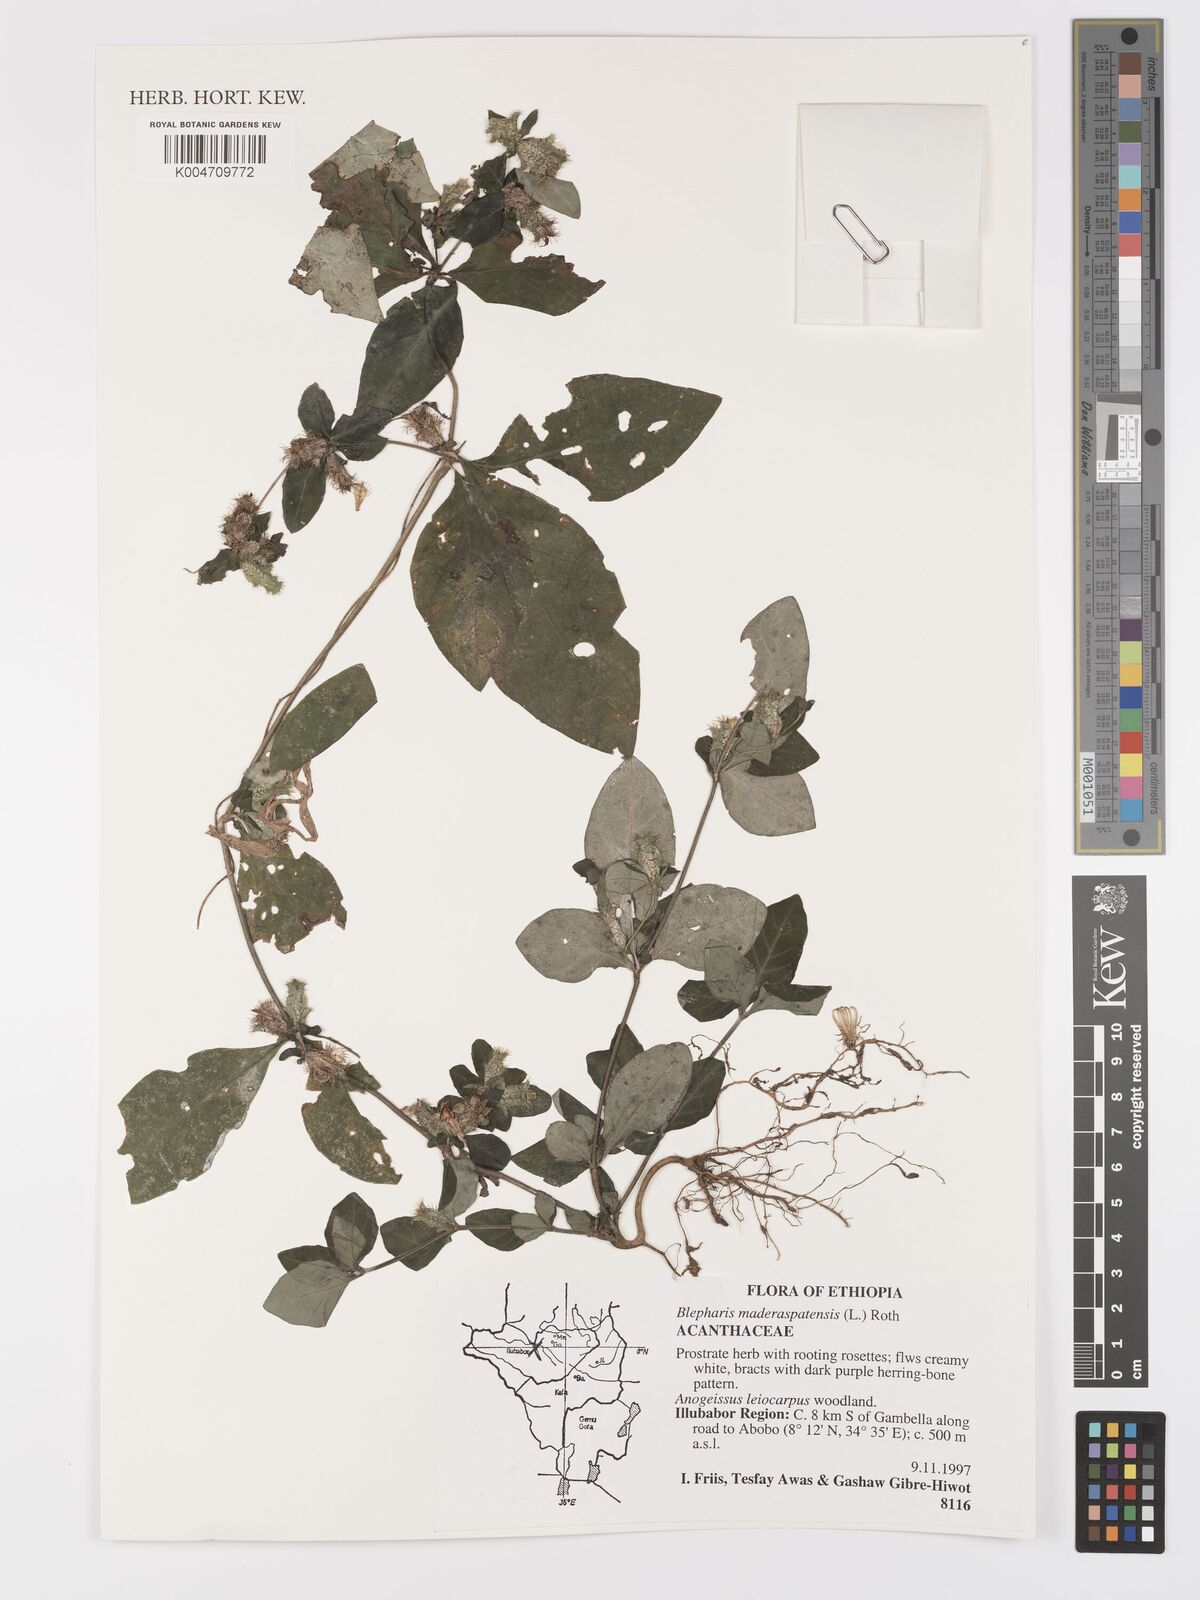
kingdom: Plantae
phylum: Tracheophyta
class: Magnoliopsida
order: Lamiales
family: Acanthaceae
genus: Blepharis
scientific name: Blepharis maderaspatensis
